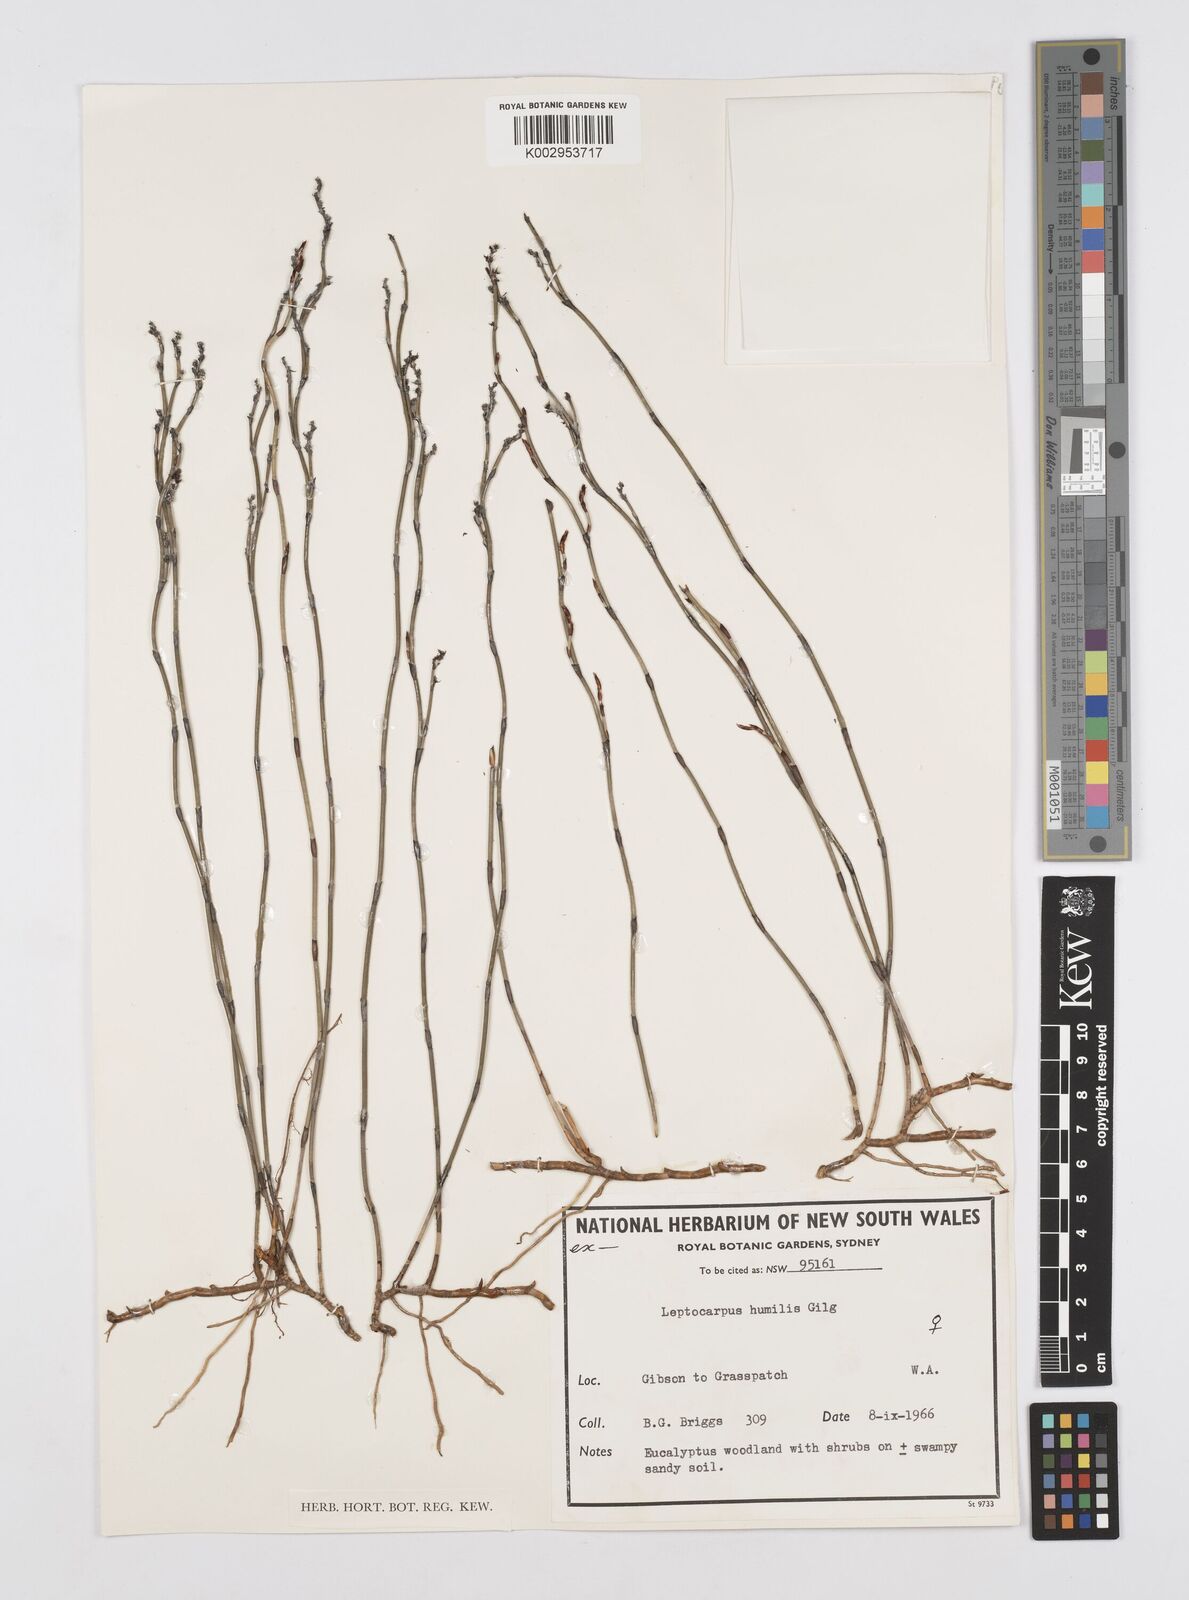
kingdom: Plantae
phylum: Tracheophyta
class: Liliopsida
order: Poales
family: Restionaceae
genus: Hypolaena
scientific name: Hypolaena humilis
